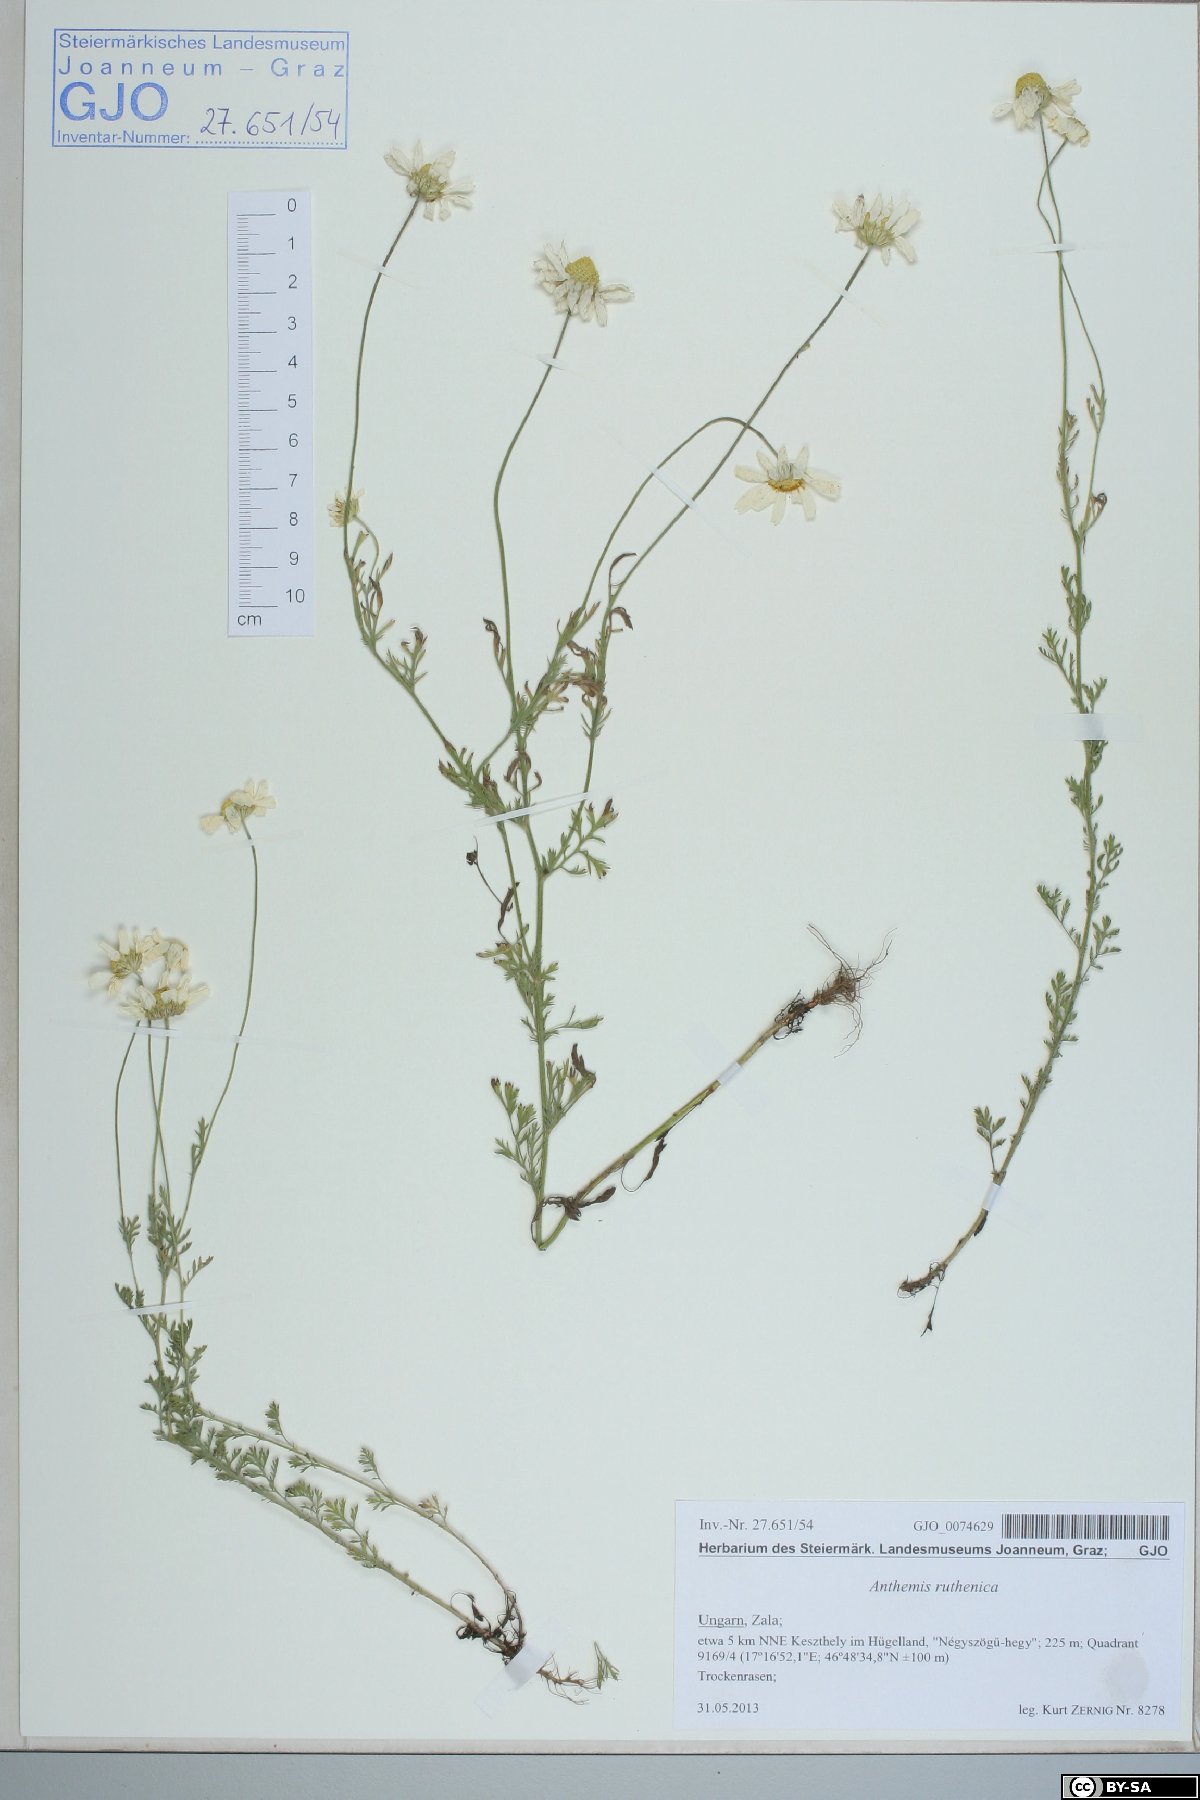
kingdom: Plantae
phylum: Tracheophyta
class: Magnoliopsida
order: Asterales
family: Asteraceae
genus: Anthemis
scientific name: Anthemis ruthenica
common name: Eastern chamomile
